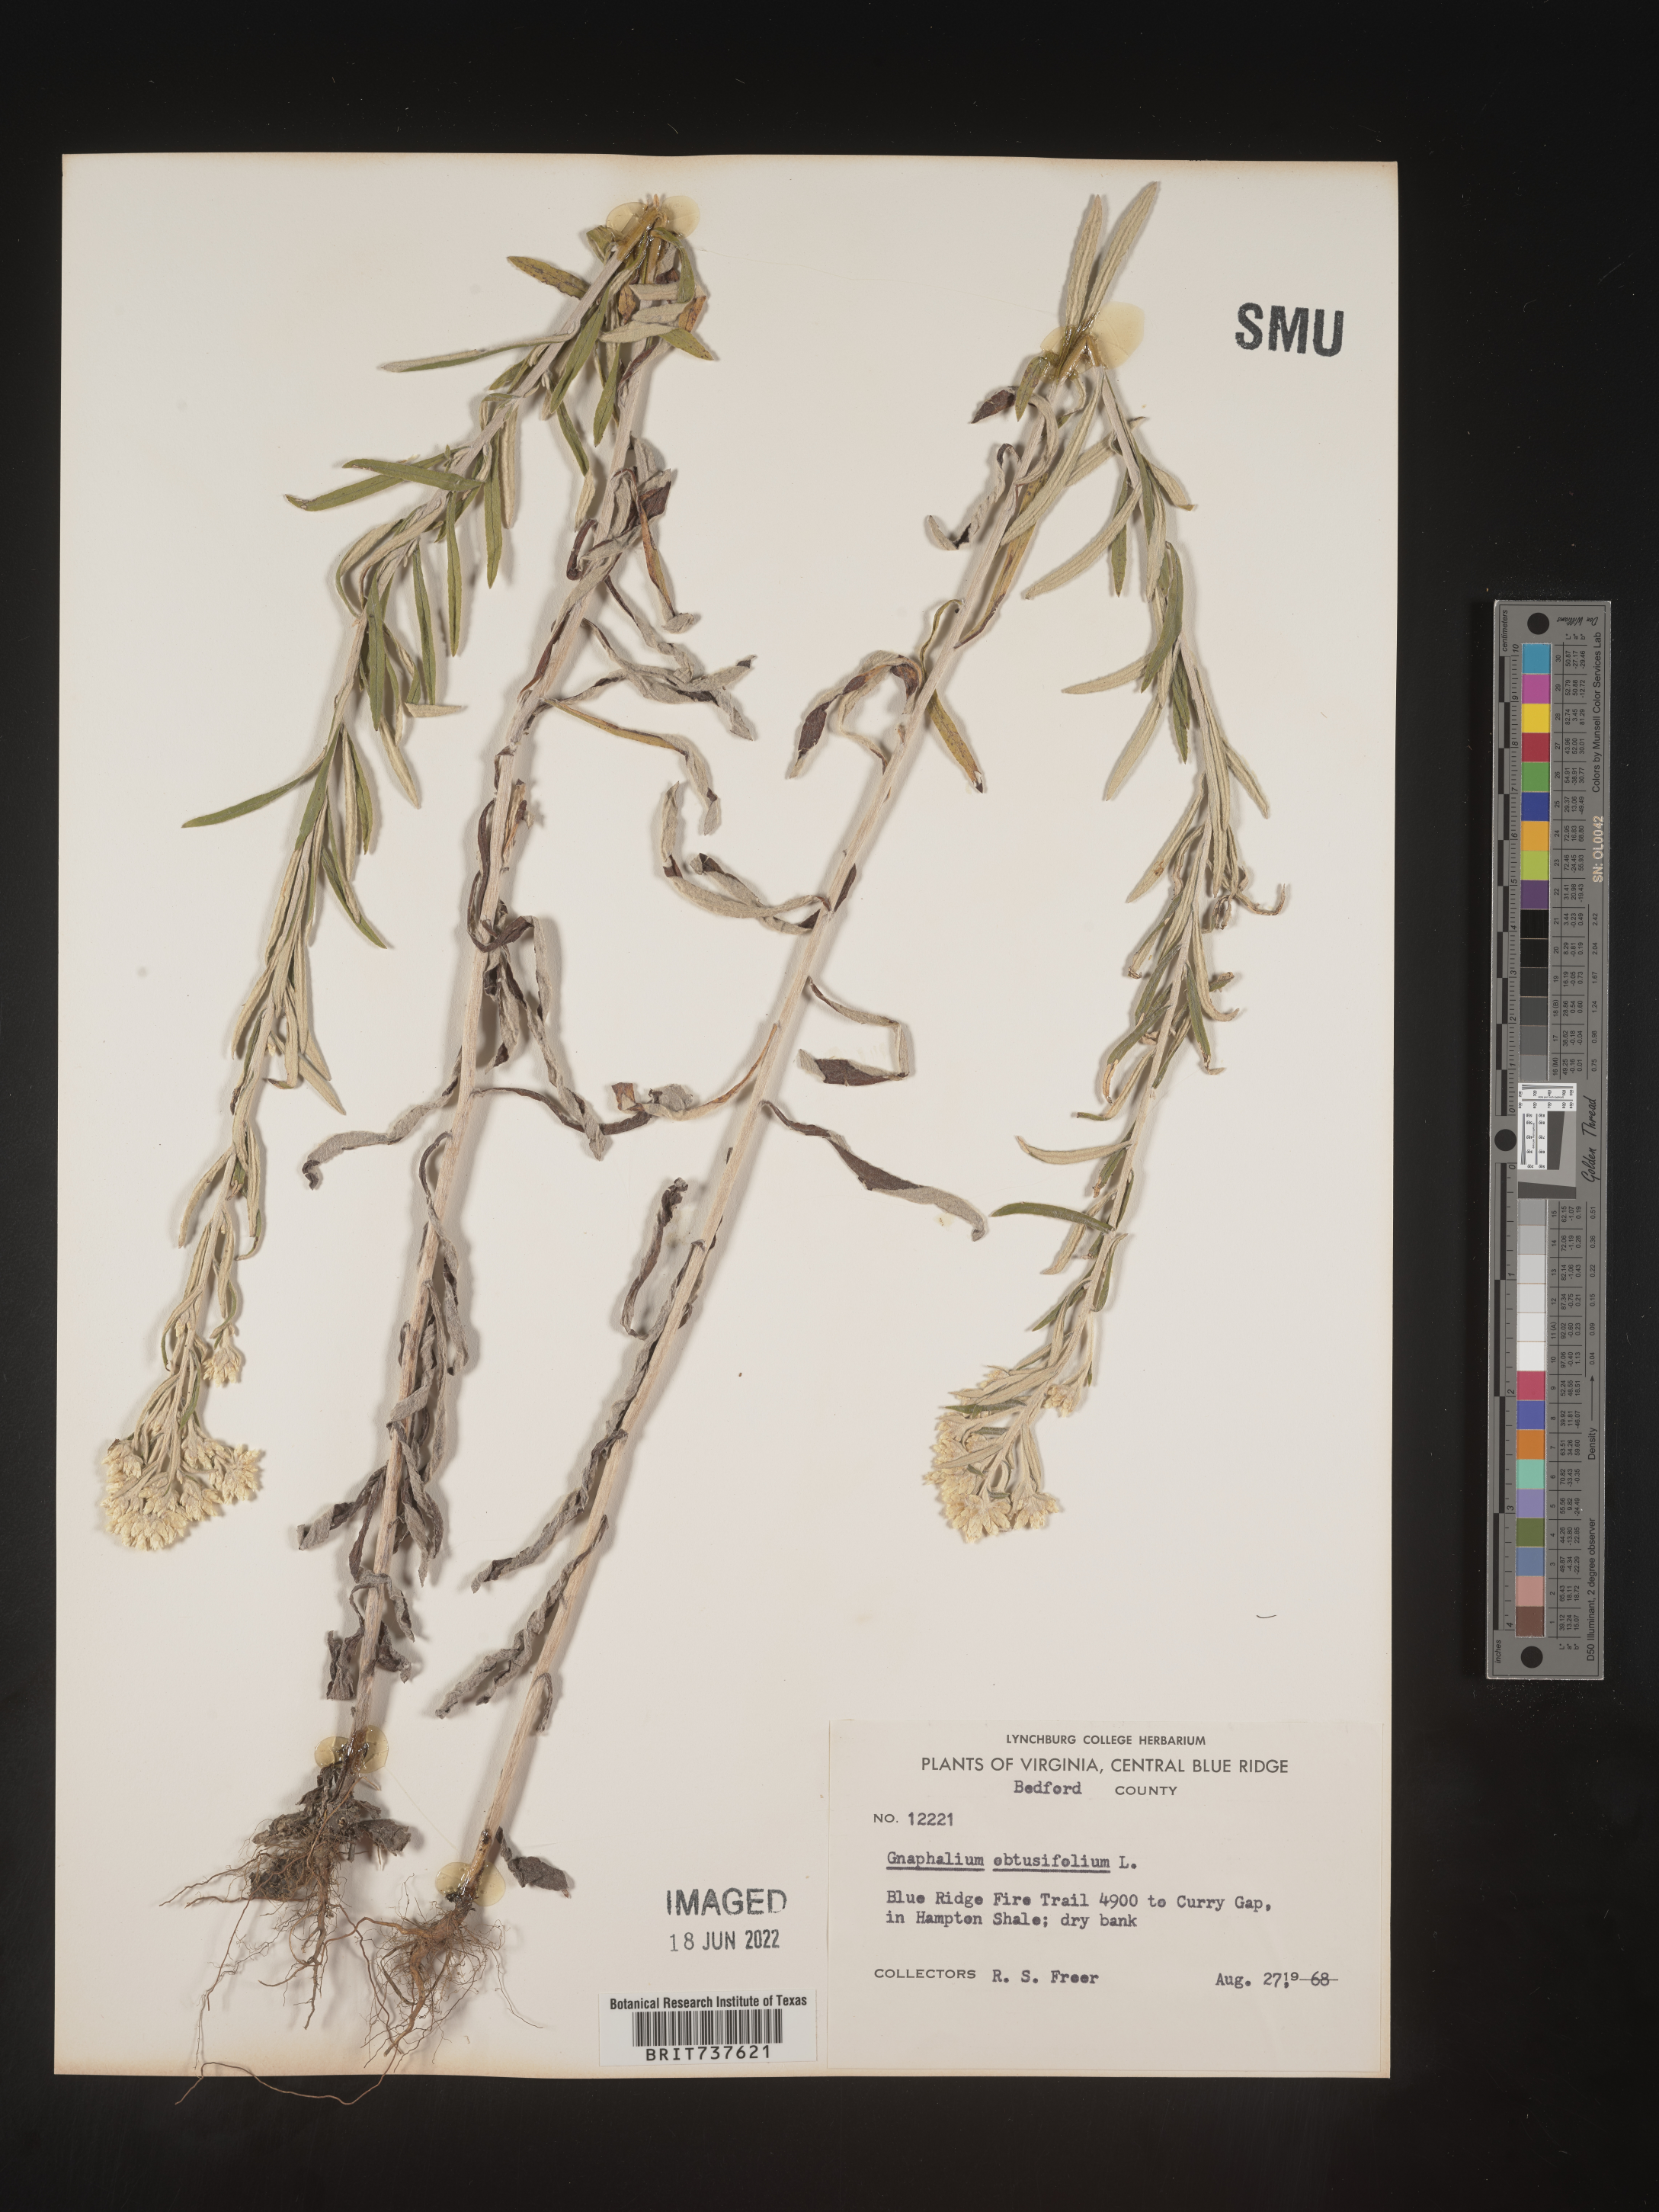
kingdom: Plantae
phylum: Tracheophyta
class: Magnoliopsida
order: Asterales
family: Asteraceae
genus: Pseudognaphalium
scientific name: Pseudognaphalium obtusifolium
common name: Eastern rabbit-tobacco
